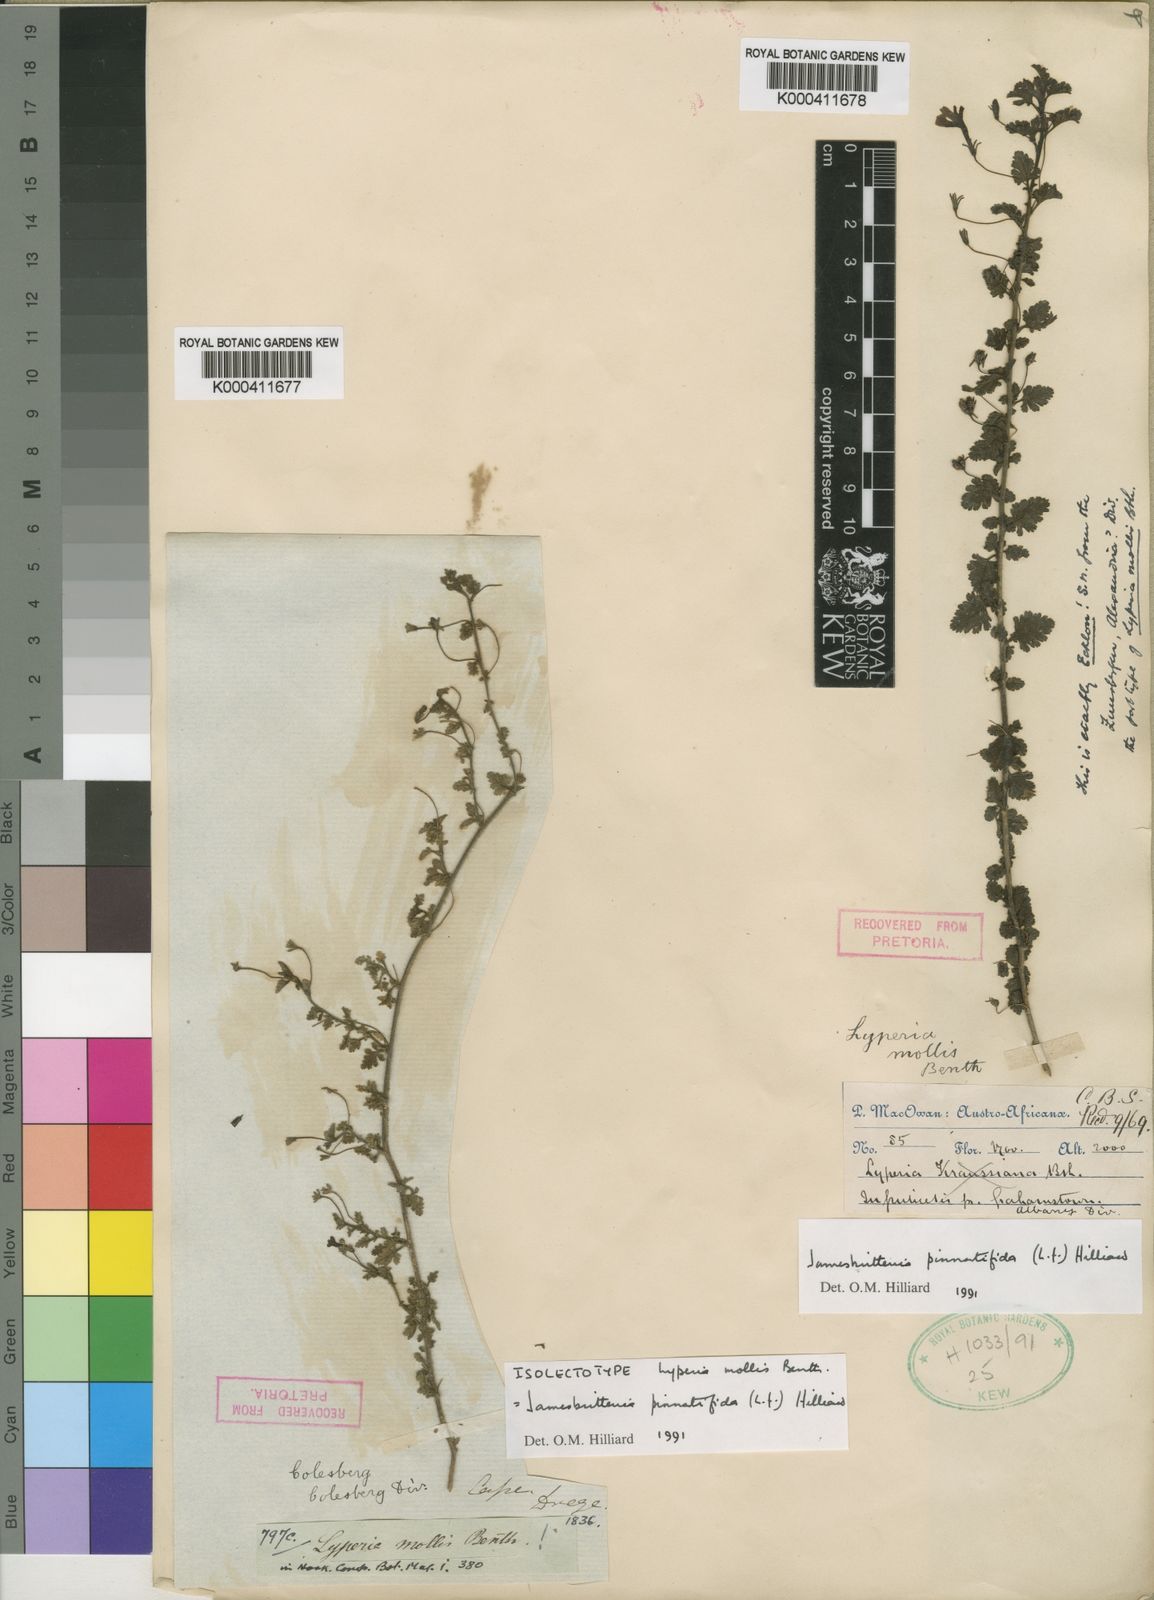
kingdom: Plantae
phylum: Tracheophyta
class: Magnoliopsida
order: Lamiales
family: Scrophulariaceae
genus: Jamesbrittenia
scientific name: Jamesbrittenia pinnatifida
